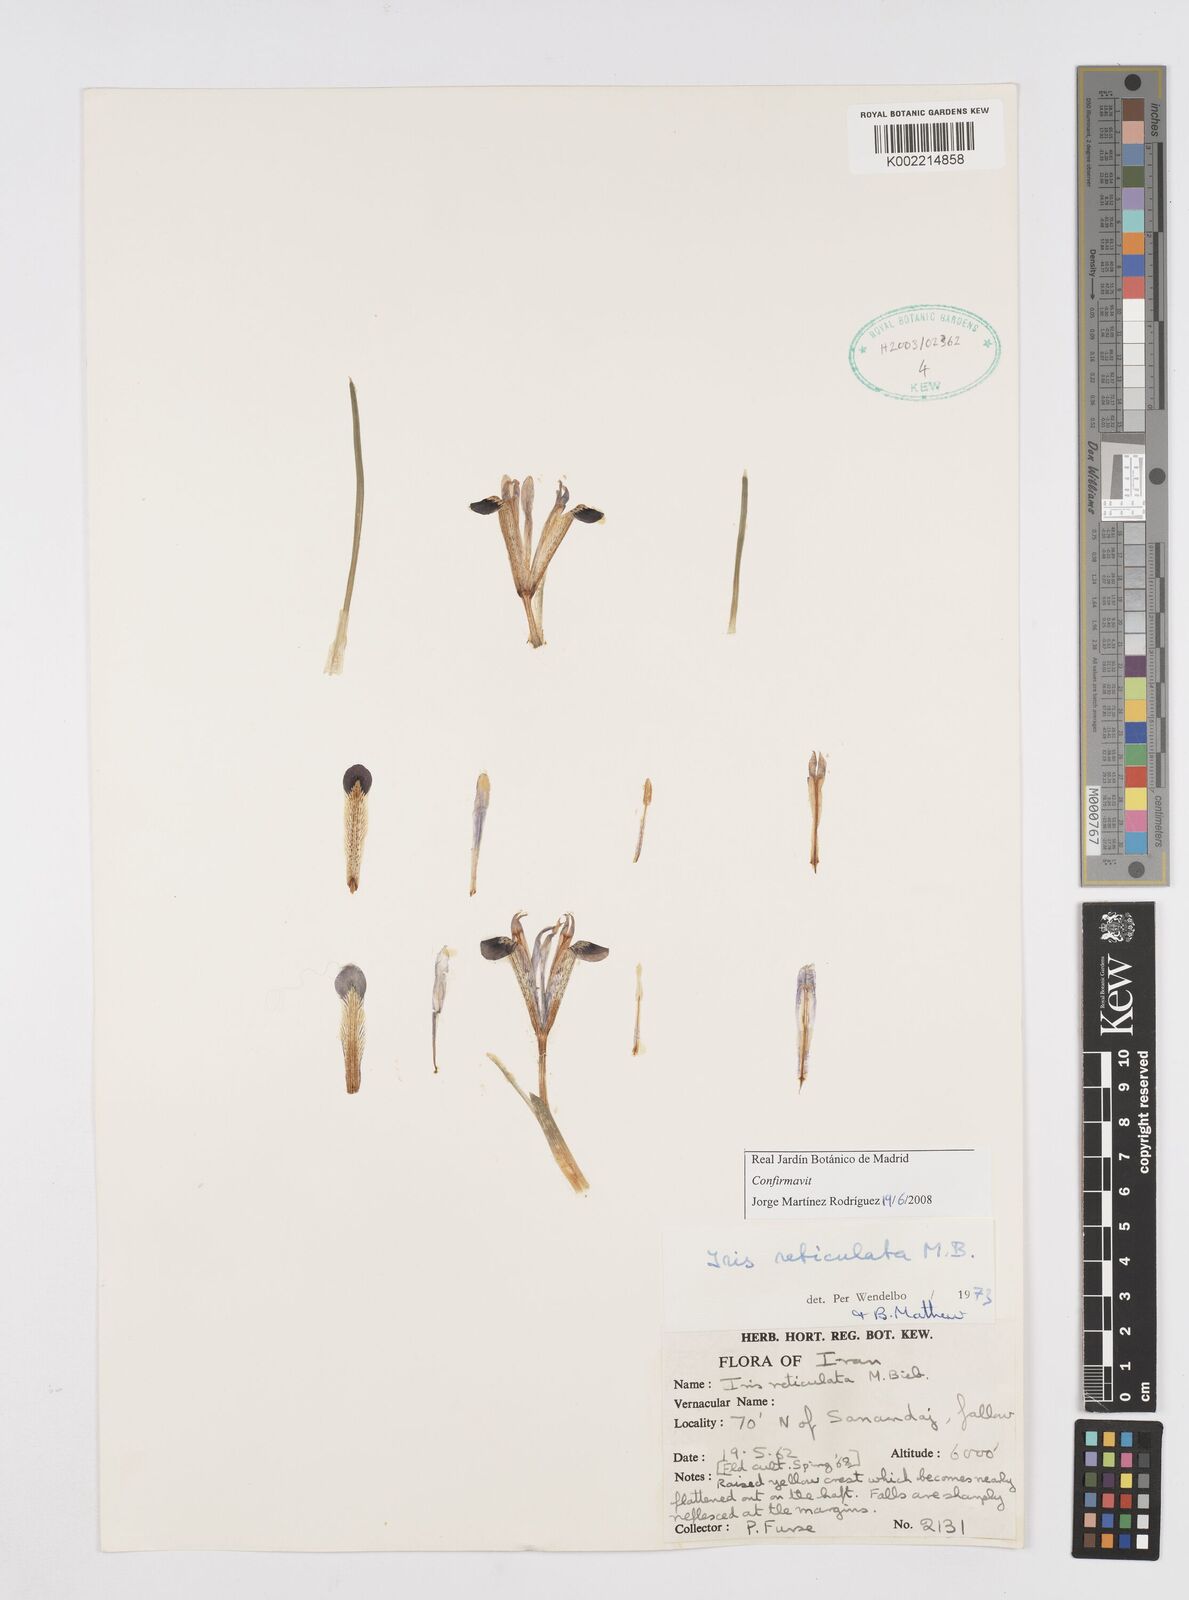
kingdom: Plantae
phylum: Tracheophyta
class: Liliopsida
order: Asparagales
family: Iridaceae
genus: Iris
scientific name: Iris reticulata
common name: Netted iris
